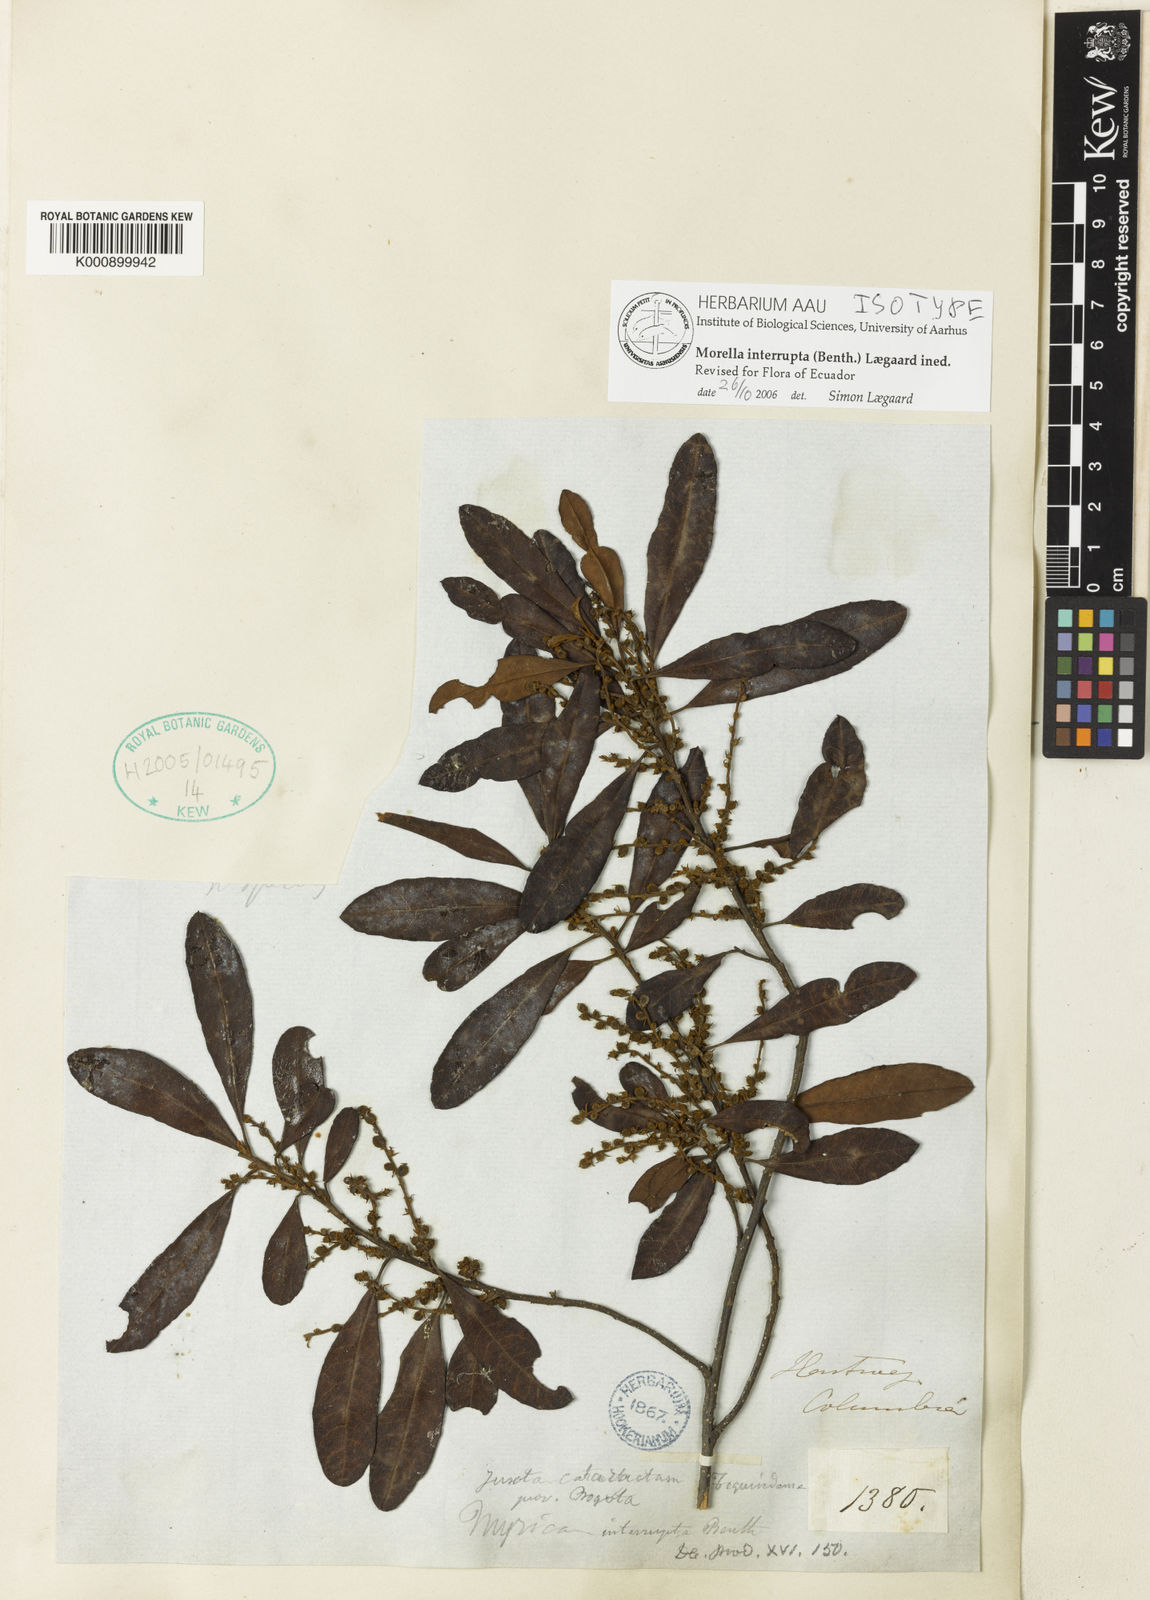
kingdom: Plantae
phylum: Tracheophyta
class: Magnoliopsida
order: Fagales
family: Myricaceae
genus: Morella
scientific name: Morella
